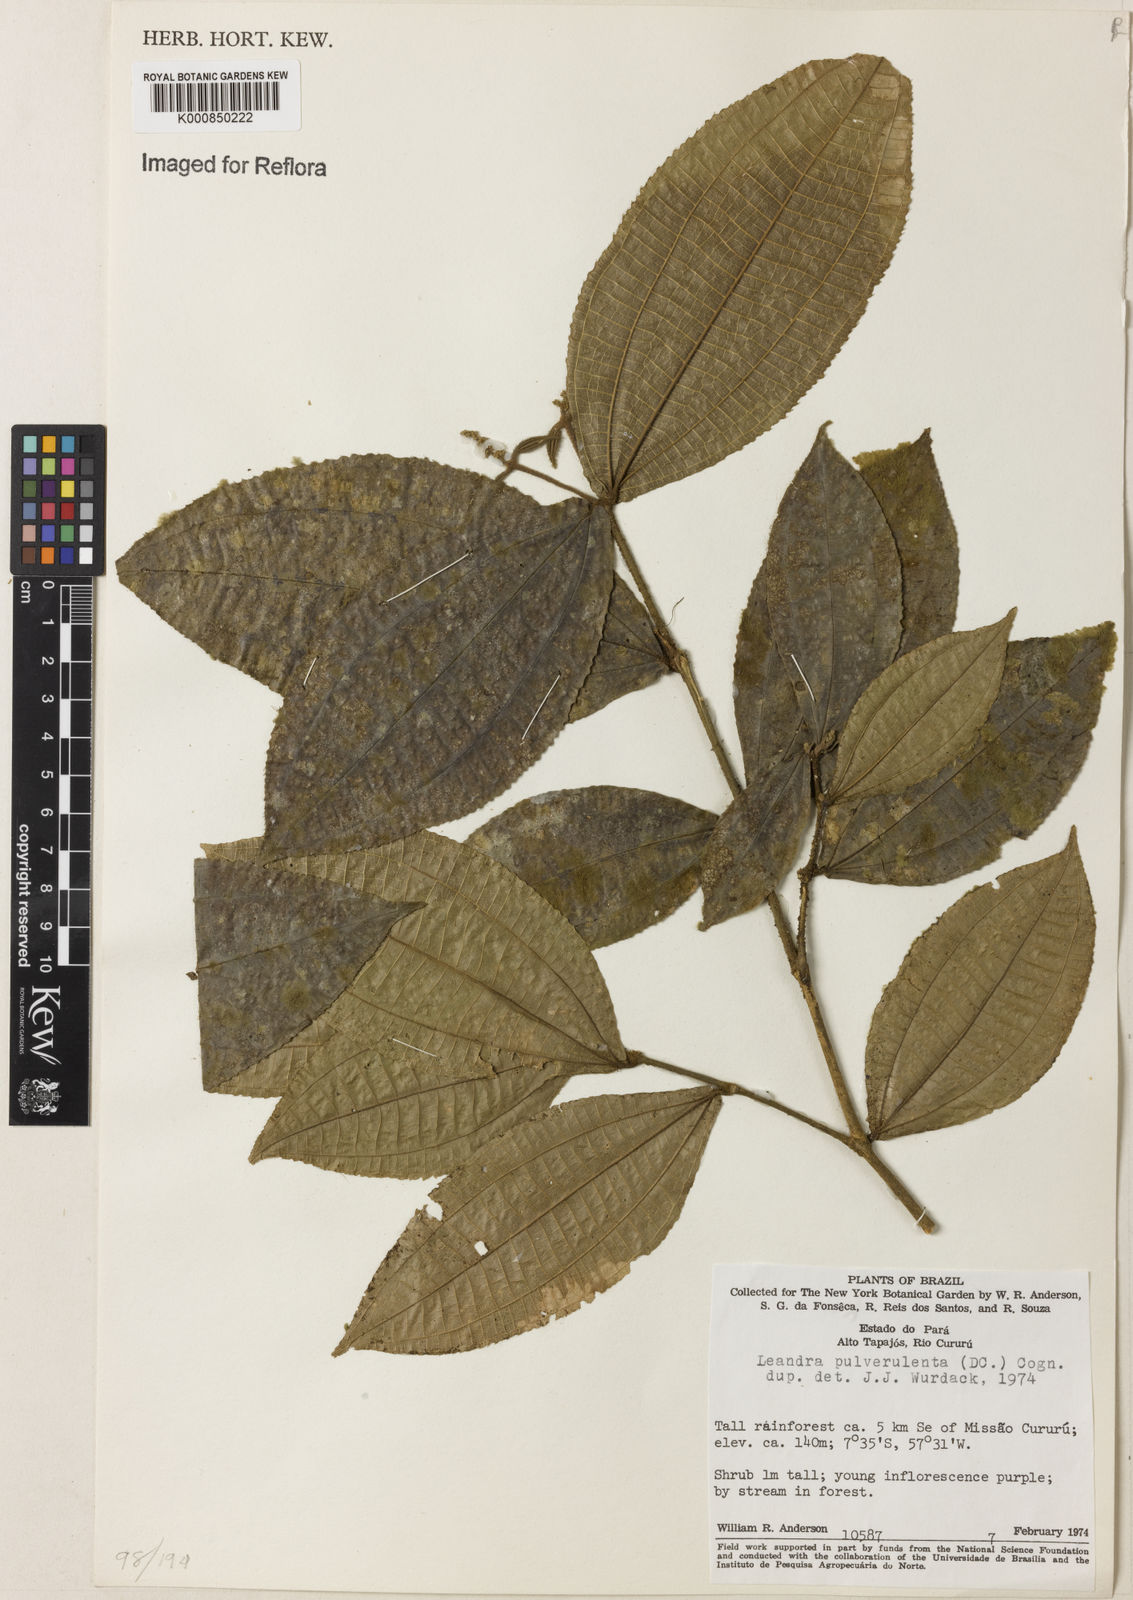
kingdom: Plantae
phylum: Tracheophyta
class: Magnoliopsida
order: Myrtales
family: Melastomataceae
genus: Miconia
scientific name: Miconia aliquantula
